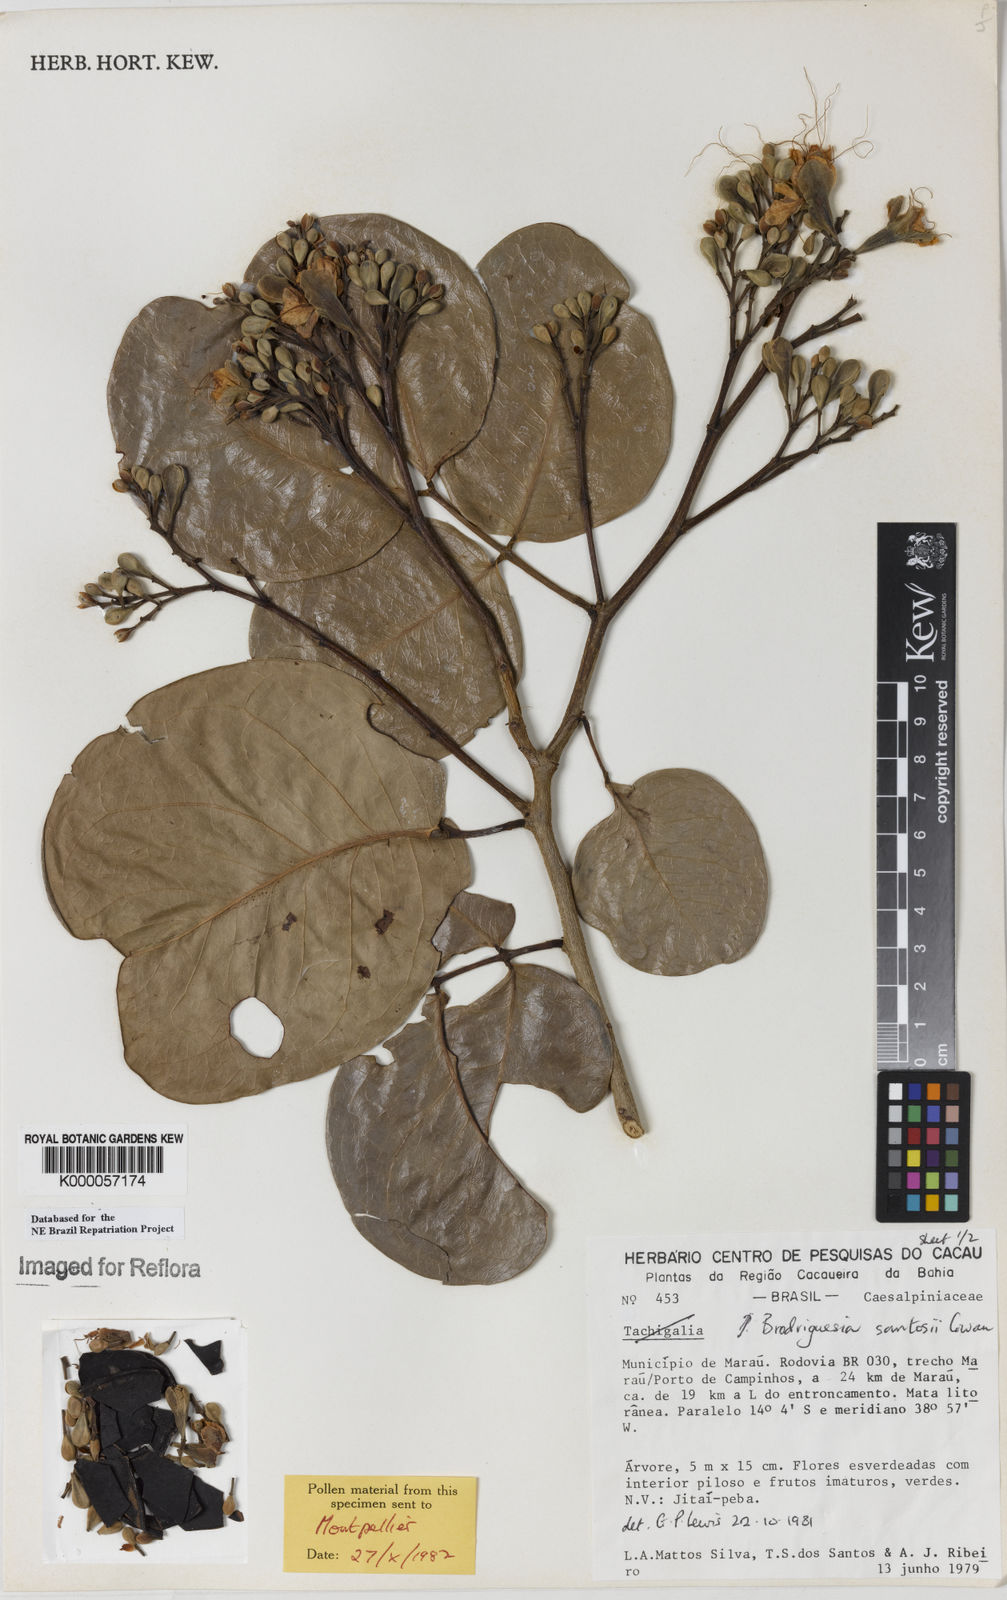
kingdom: Plantae
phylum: Tracheophyta
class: Magnoliopsida
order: Fabales
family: Fabaceae
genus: Brodriguesia
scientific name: Brodriguesia santosii
